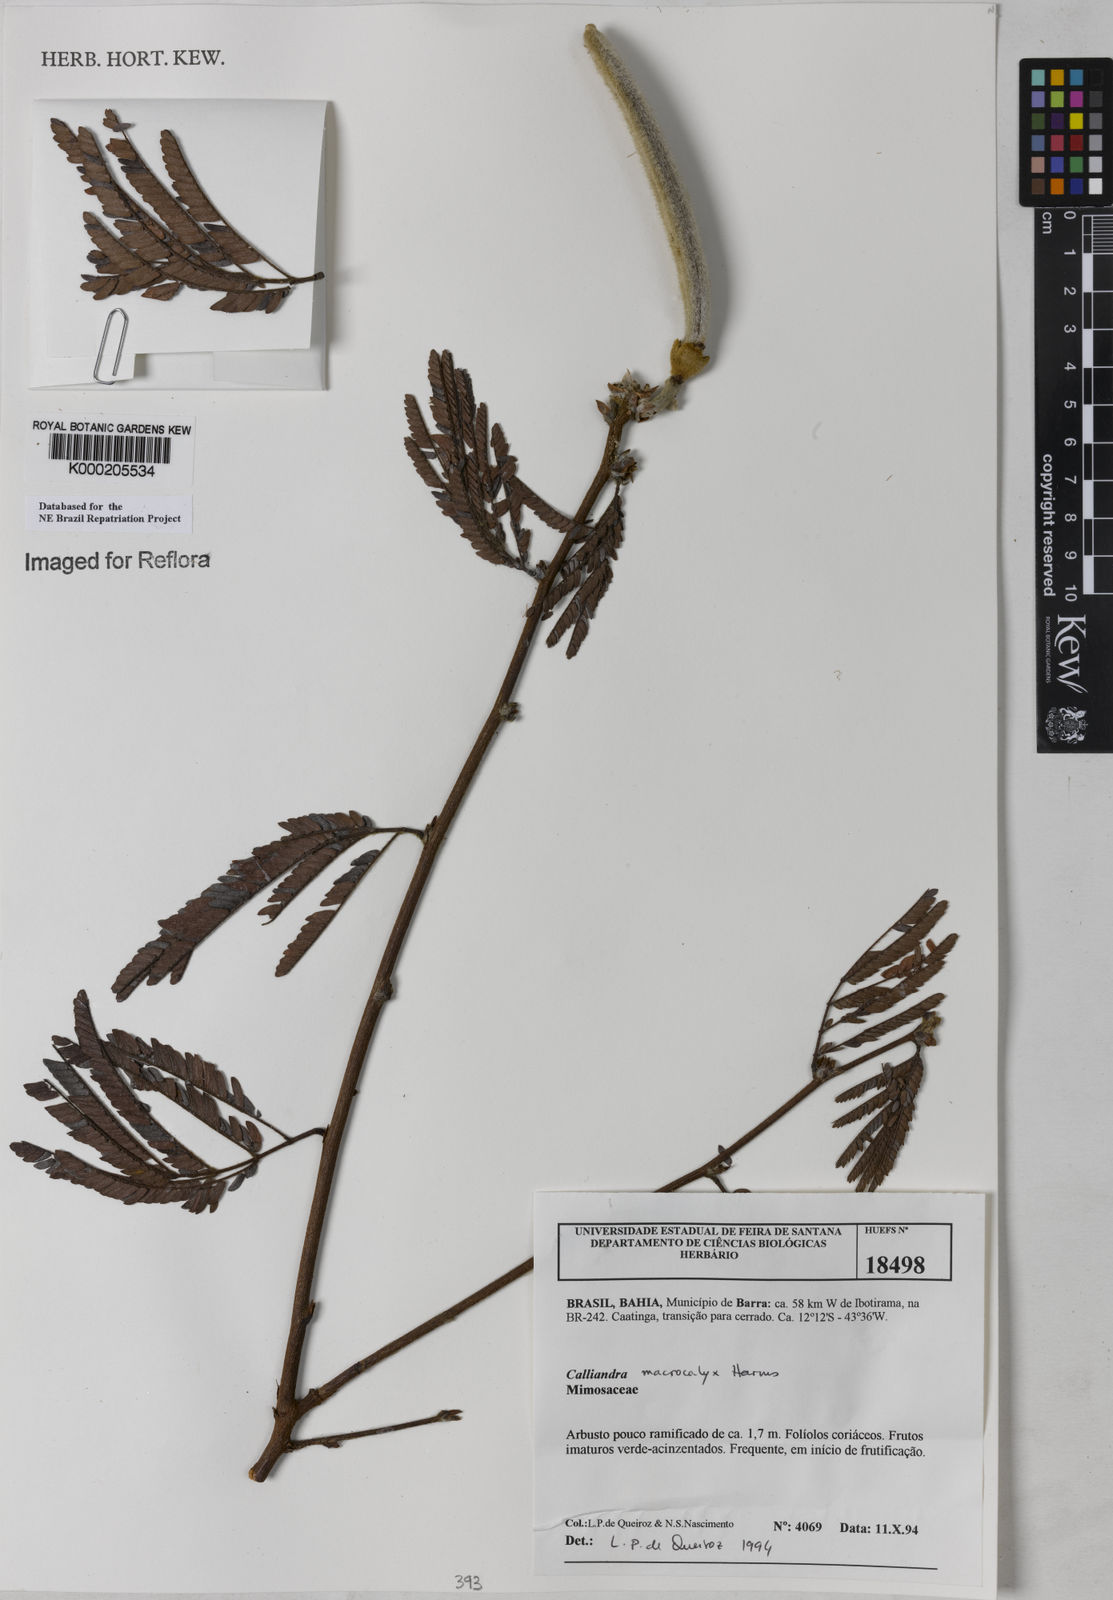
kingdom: Plantae
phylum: Tracheophyta
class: Magnoliopsida
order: Fabales
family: Fabaceae
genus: Calliandra
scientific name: Calliandra macrocalyx
